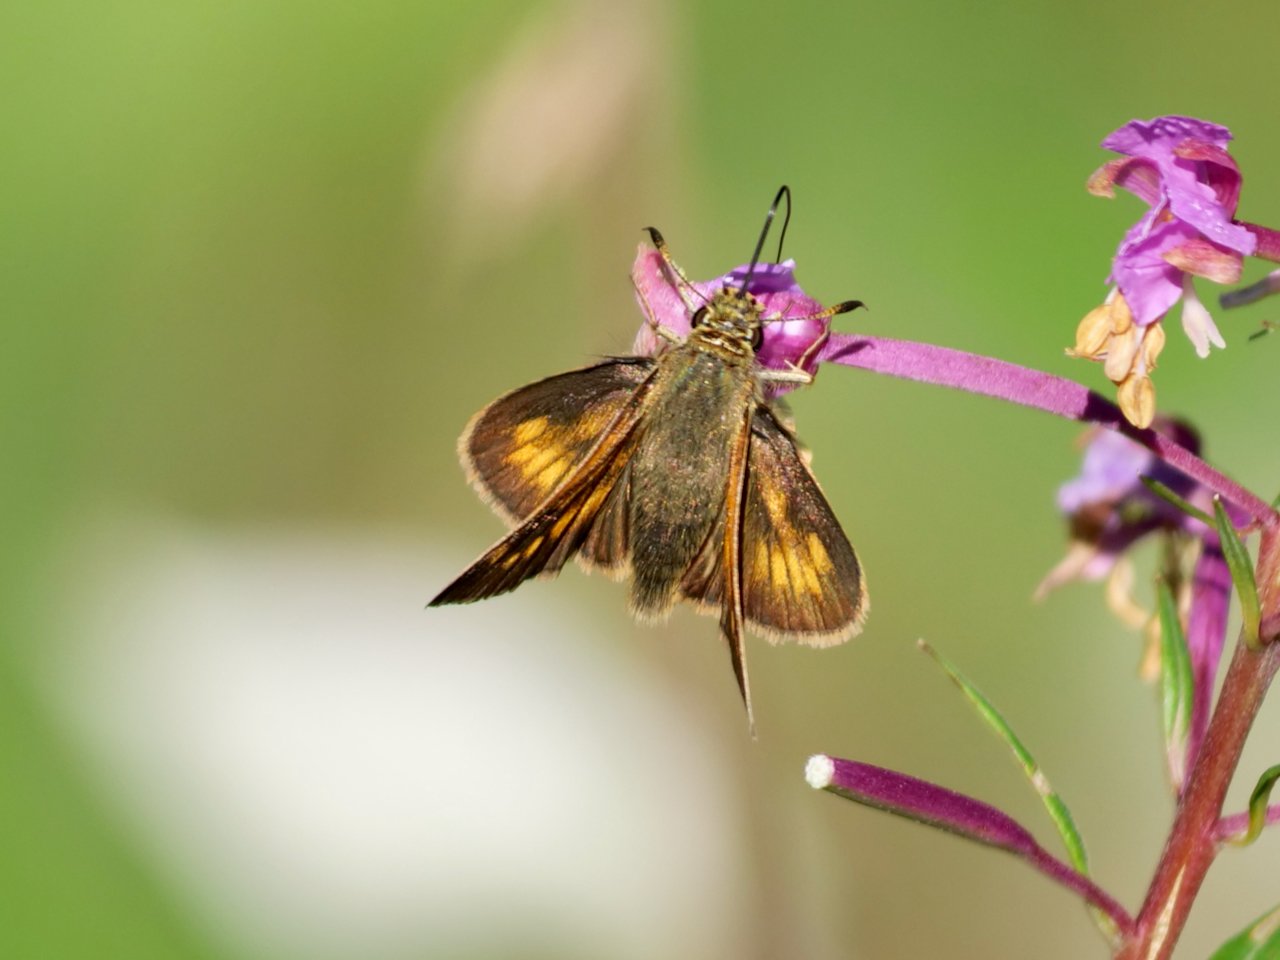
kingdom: Animalia
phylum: Arthropoda
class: Insecta
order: Lepidoptera
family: Hesperiidae
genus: Polites
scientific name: Polites
